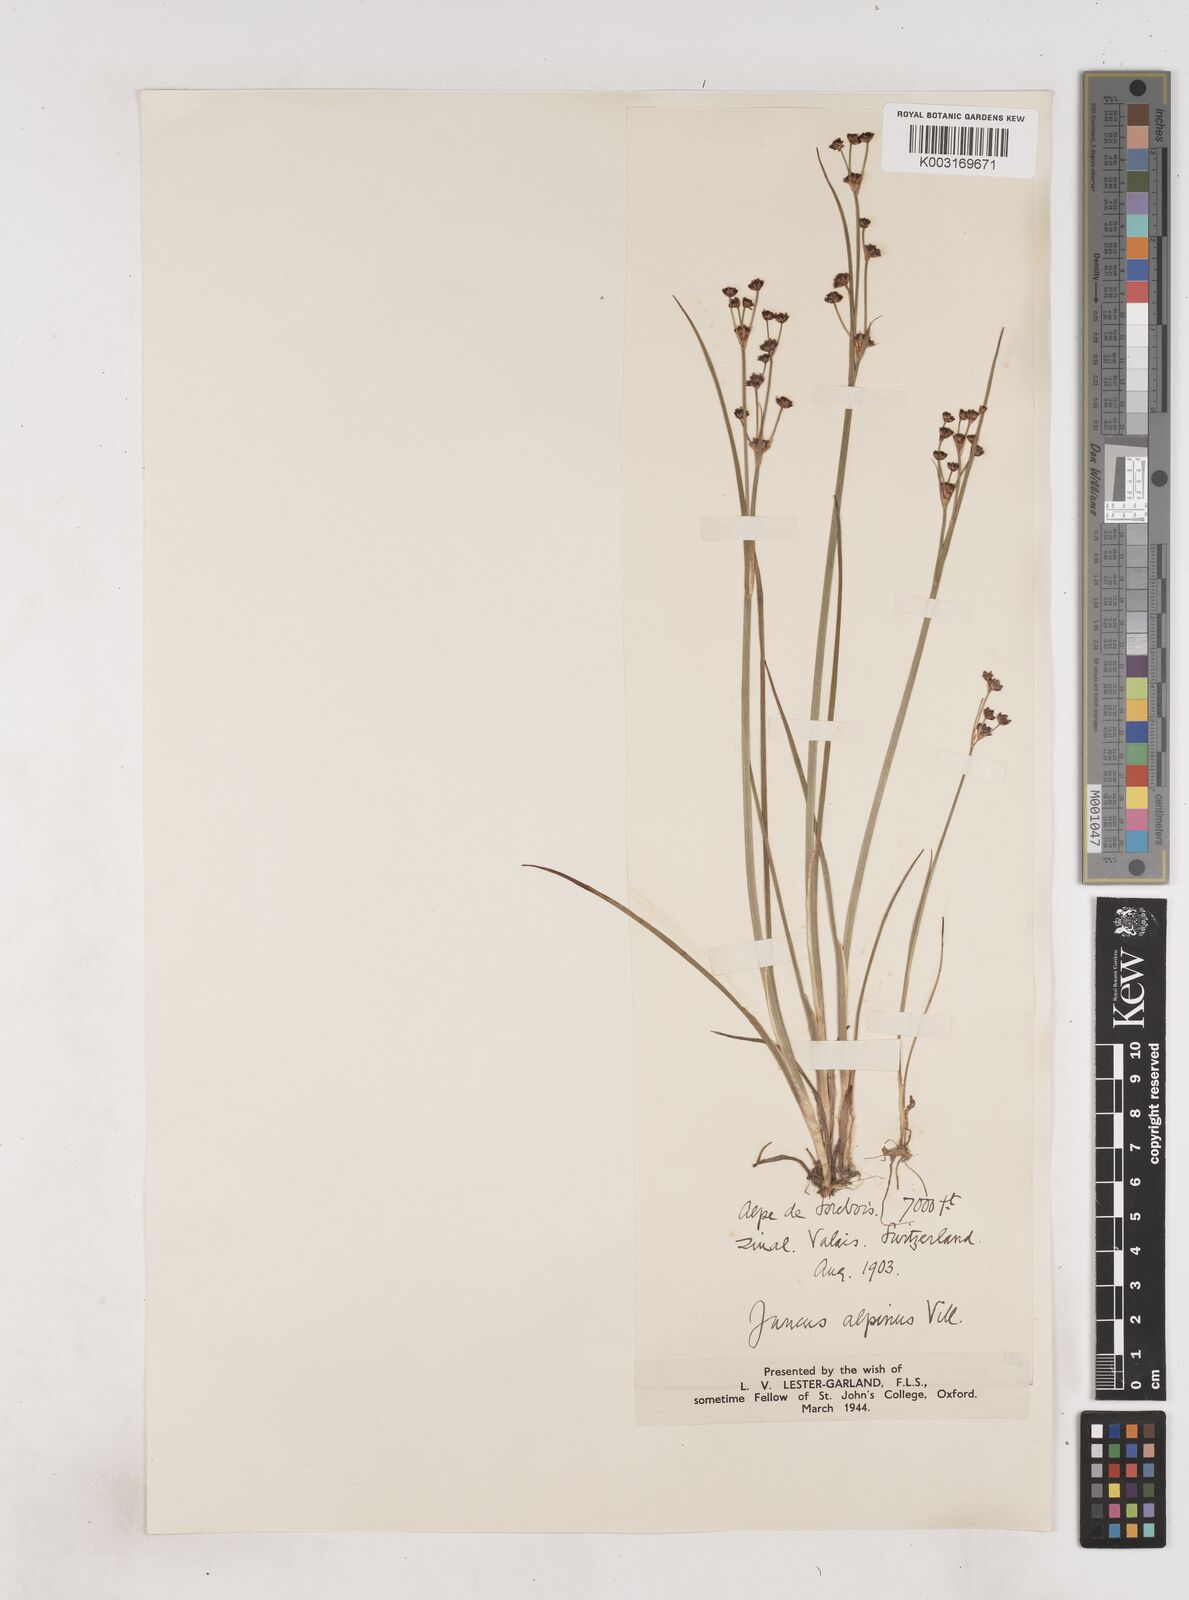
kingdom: Plantae
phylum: Tracheophyta
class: Liliopsida
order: Poales
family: Juncaceae
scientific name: Juncaceae
